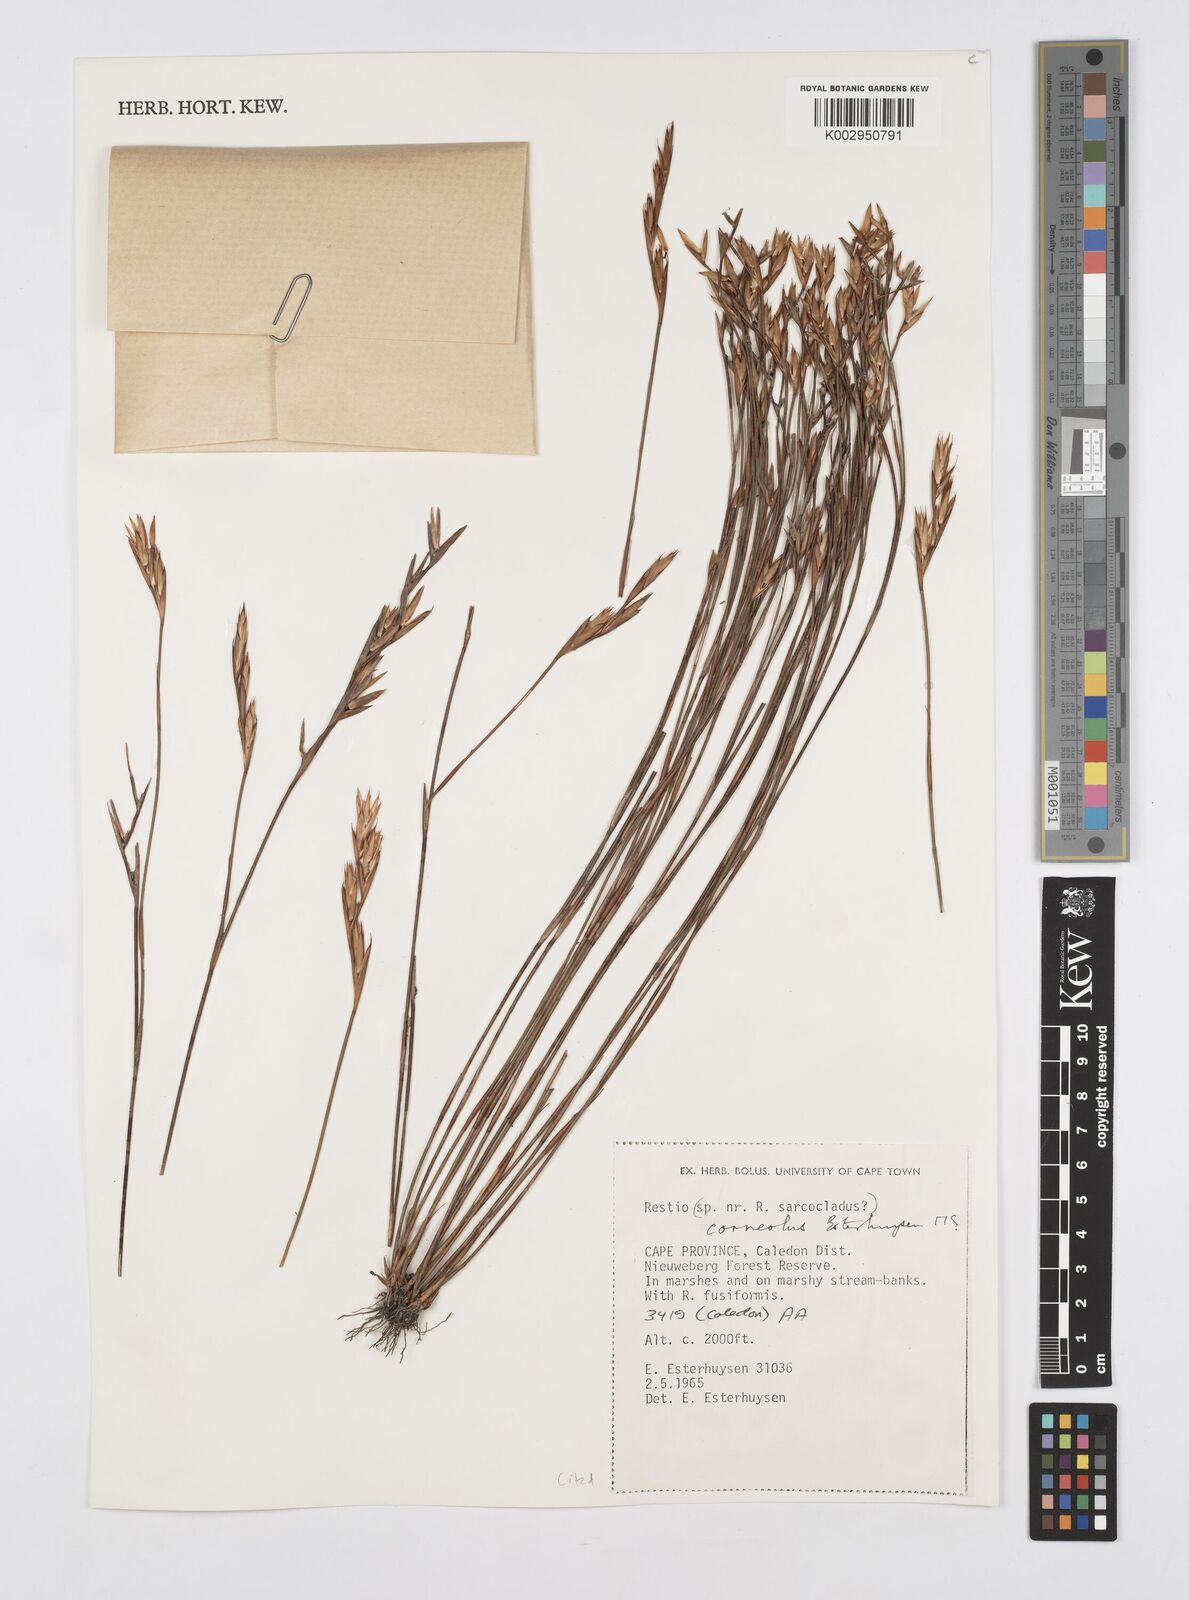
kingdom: Plantae
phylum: Tracheophyta
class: Liliopsida
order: Poales
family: Restionaceae
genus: Restio
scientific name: Restio corneolus
